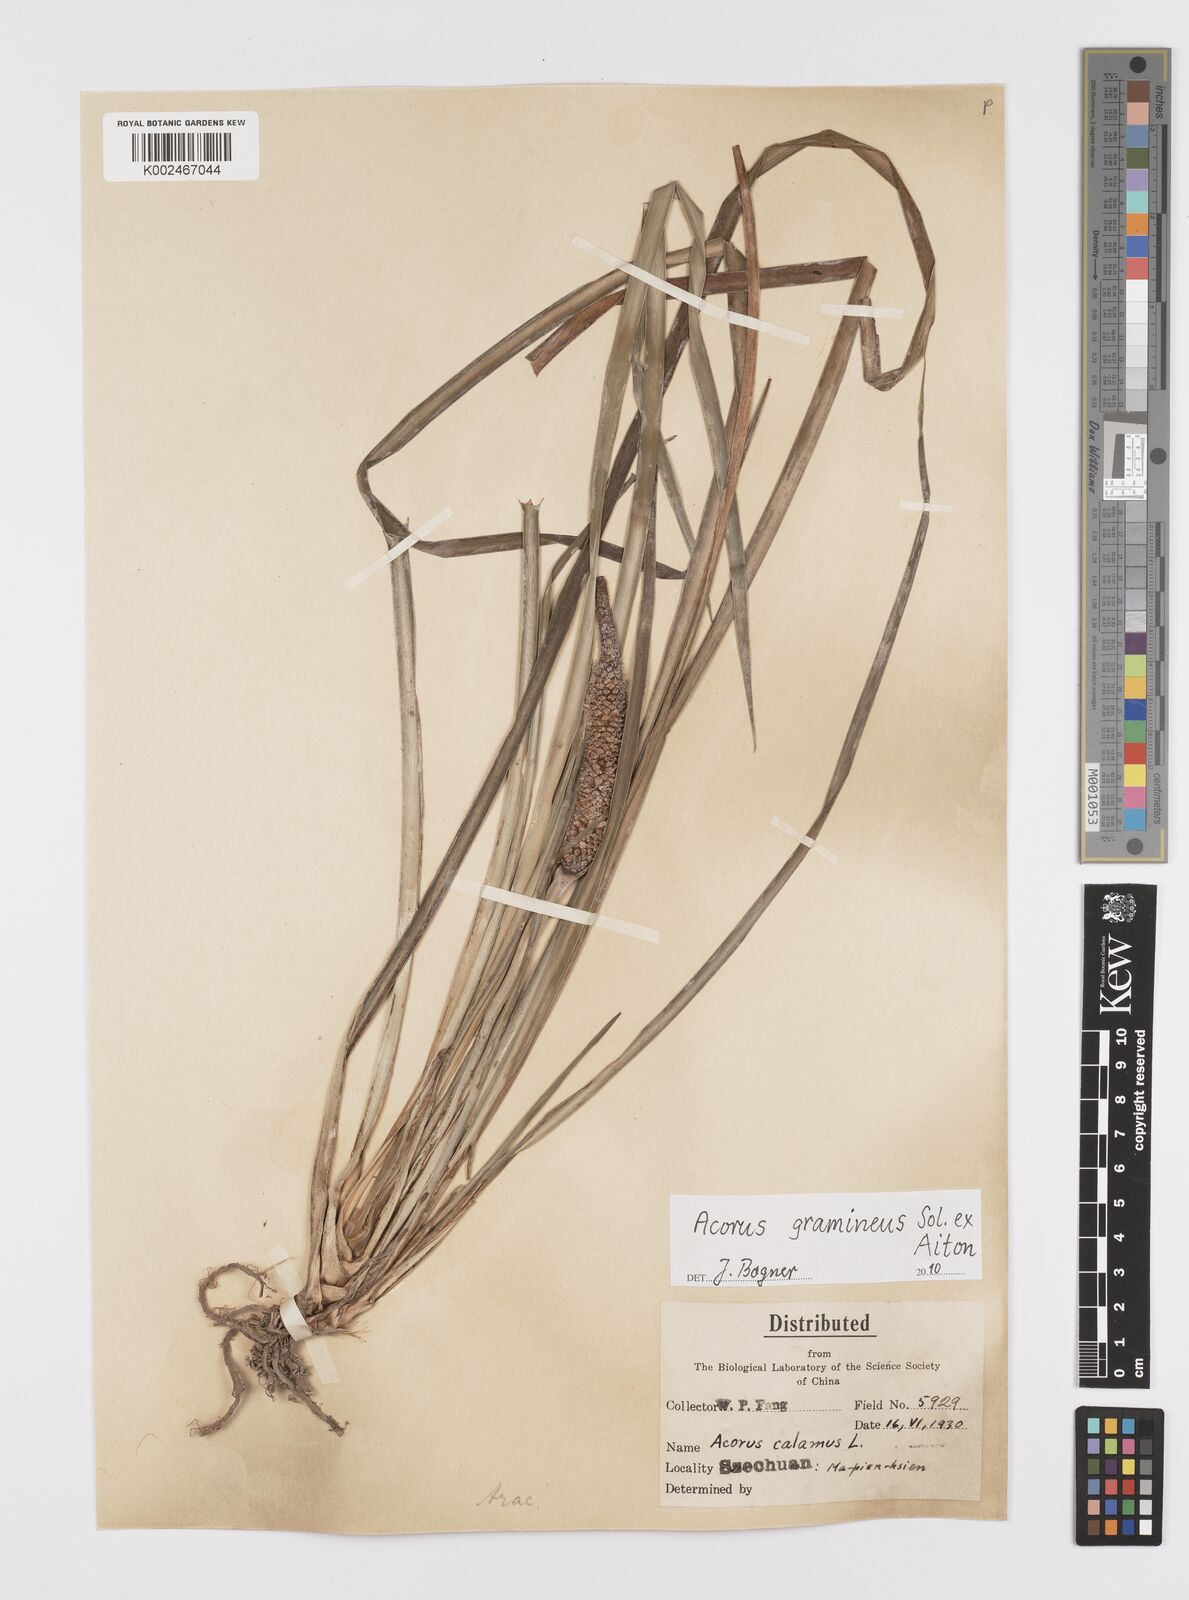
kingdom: Plantae
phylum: Tracheophyta
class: Liliopsida
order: Acorales
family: Acoraceae
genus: Acorus
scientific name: Acorus gramineus
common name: Slender sweet-flag
